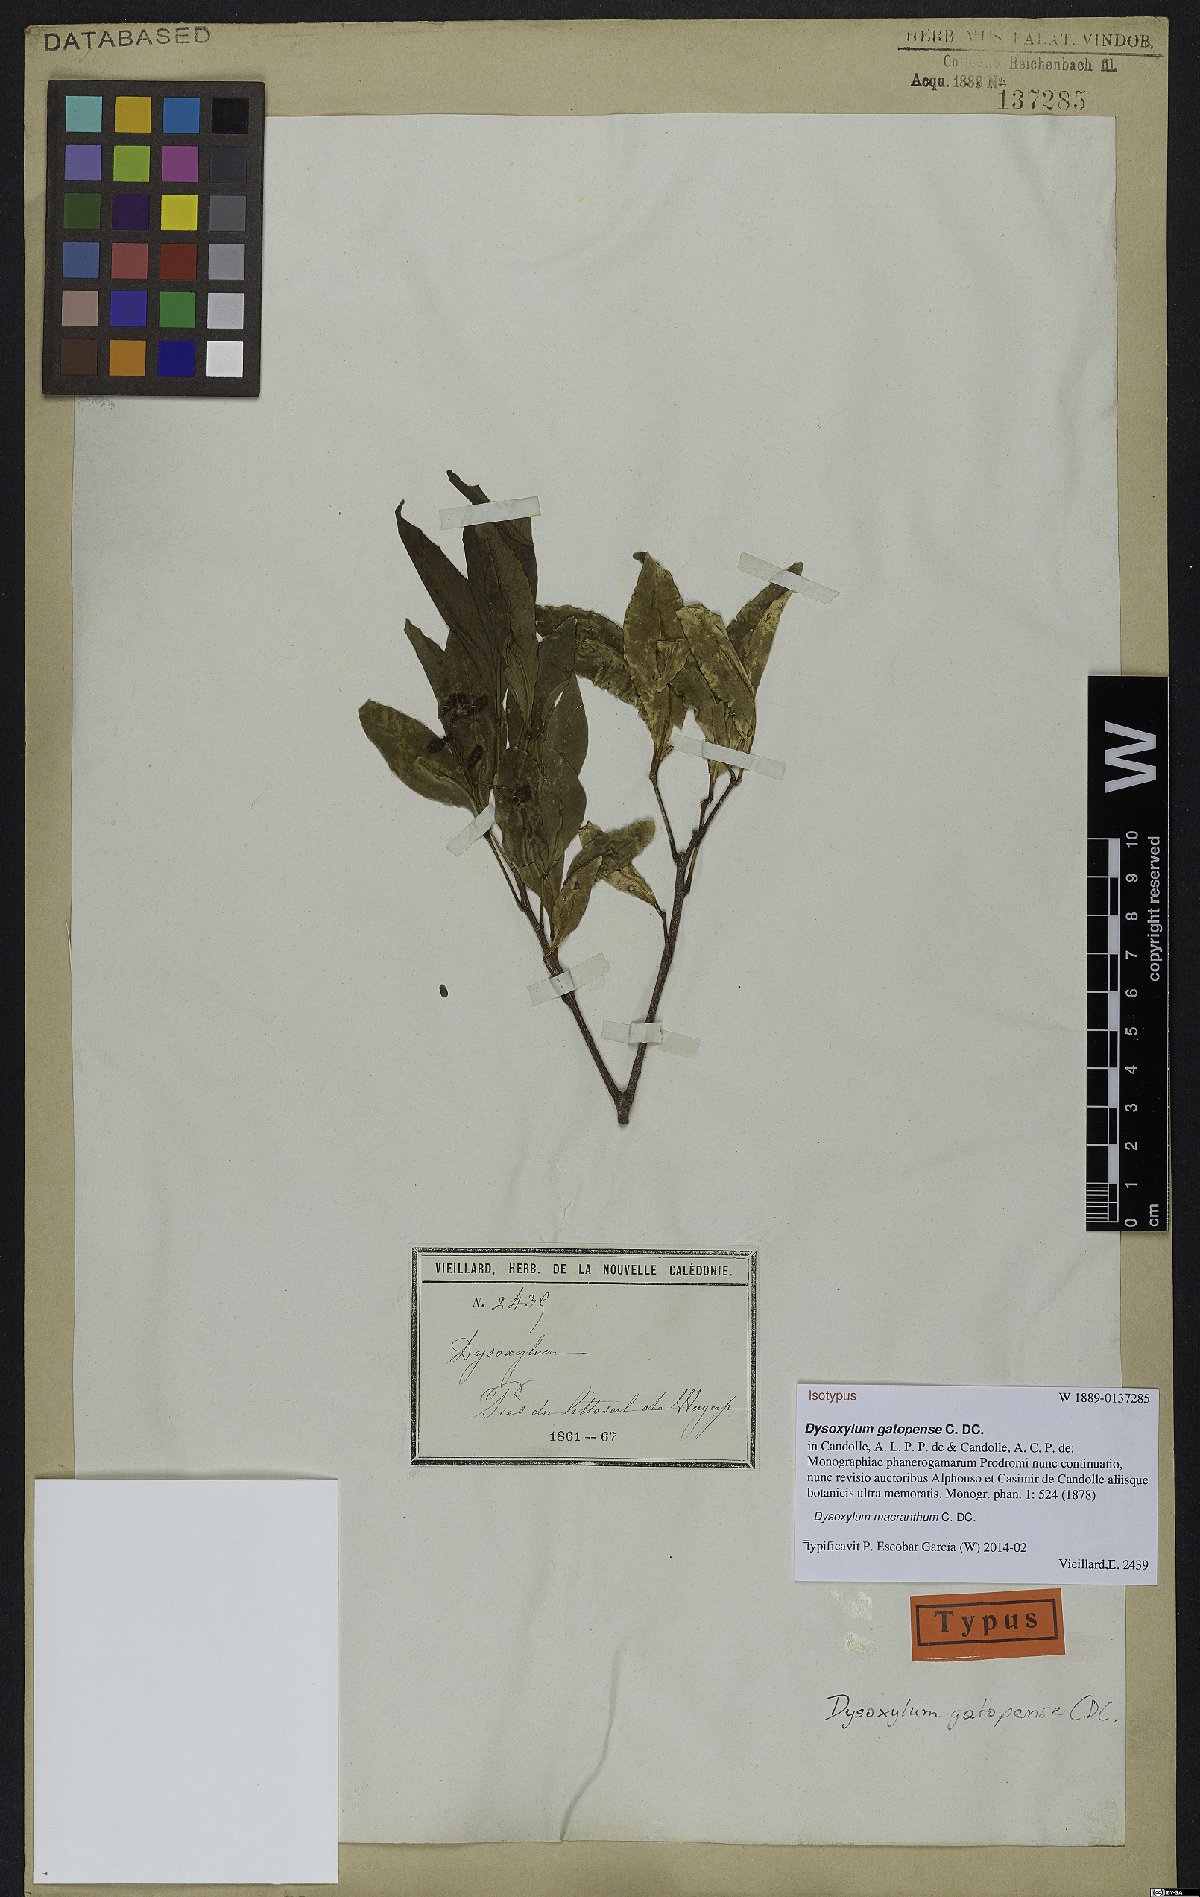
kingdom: Plantae
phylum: Tracheophyta
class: Magnoliopsida
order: Sapindales
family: Meliaceae
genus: Didymocheton
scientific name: Didymocheton macranthus
